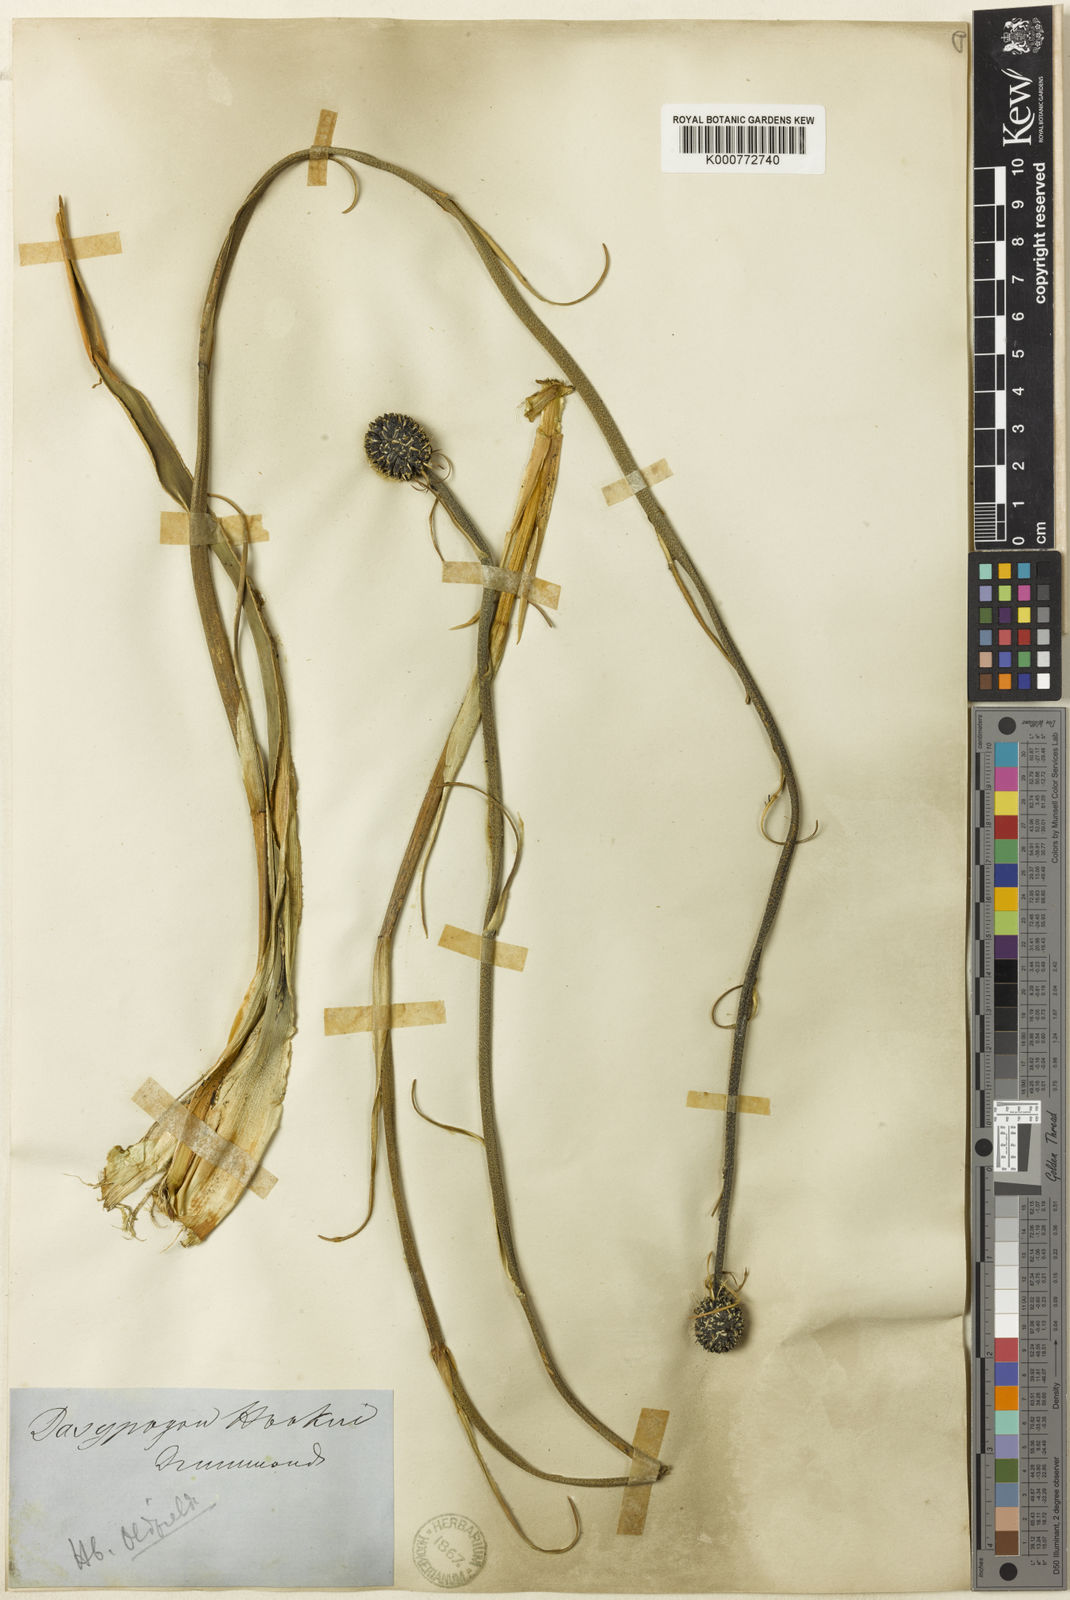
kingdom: Plantae
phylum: Tracheophyta
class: Liliopsida
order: Arecales
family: Dasypogonaceae
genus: Dasypogon
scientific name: Dasypogon hookeri
